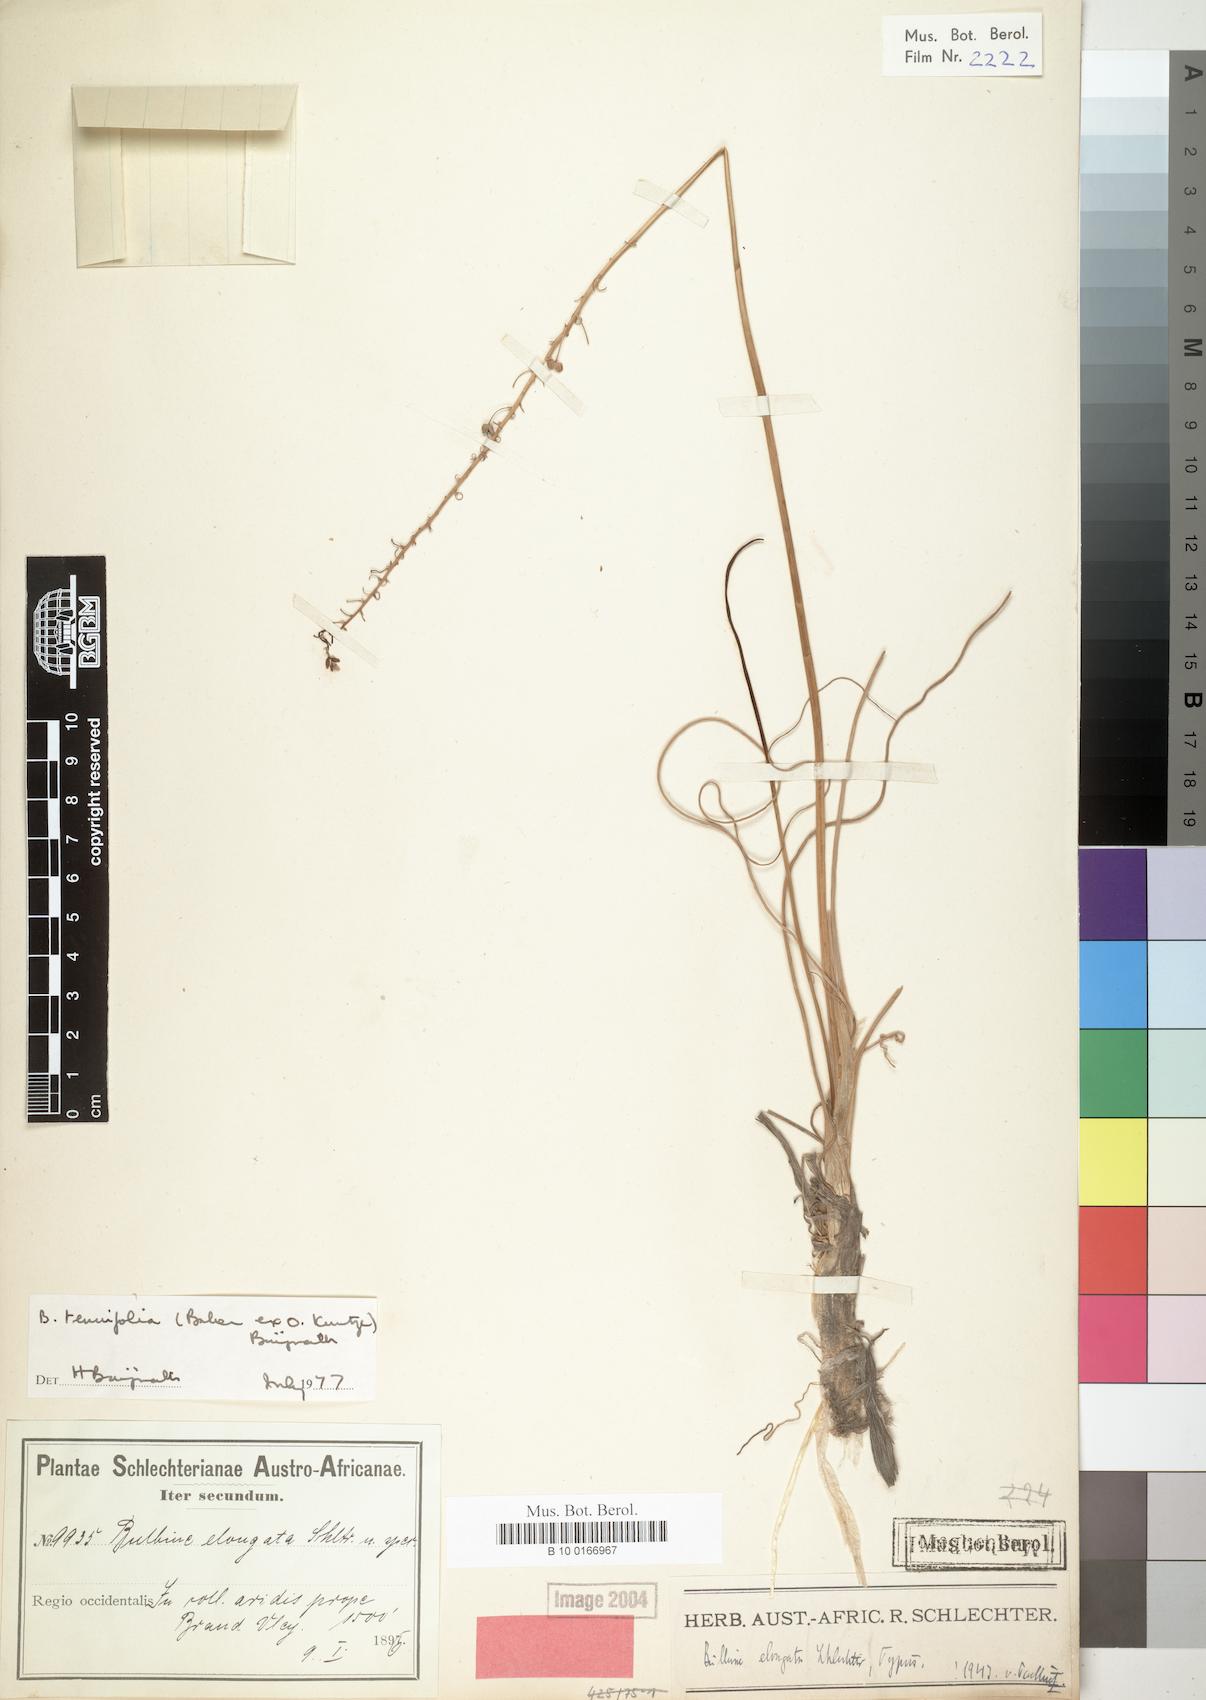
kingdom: Plantae
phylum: Tracheophyta
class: Liliopsida
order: Liliales
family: Liliaceae
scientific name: Liliaceae
